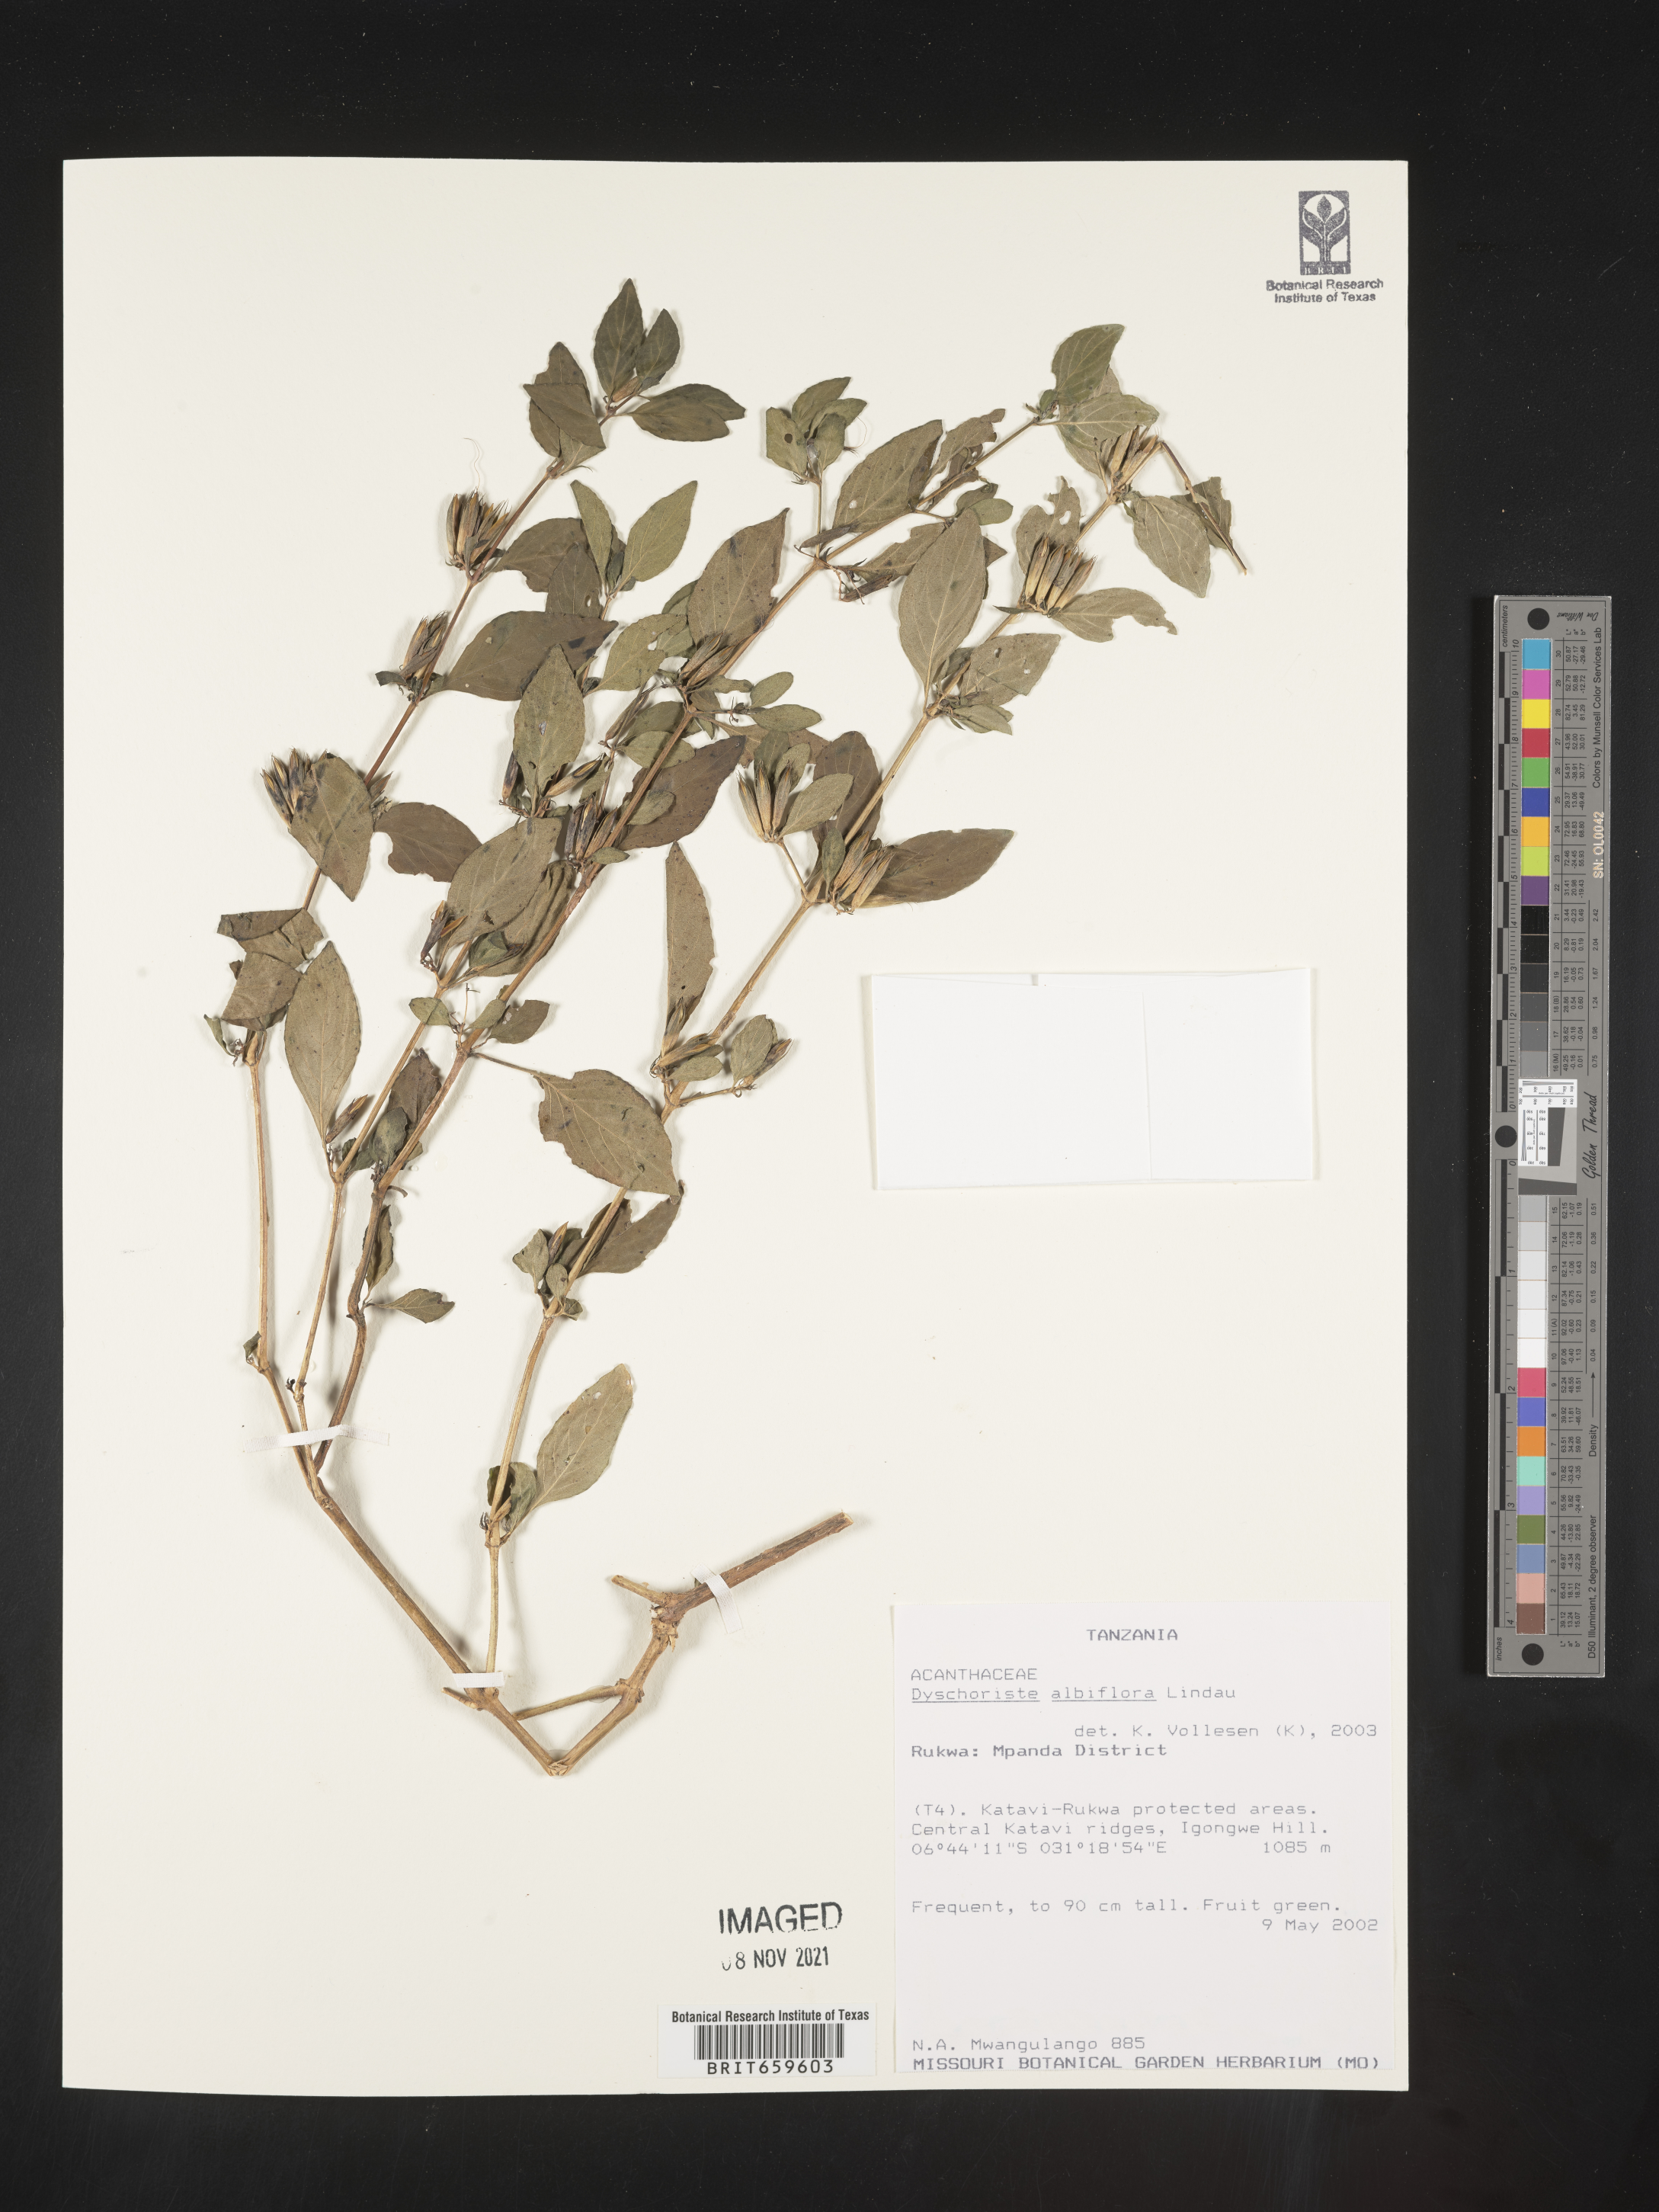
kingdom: Plantae
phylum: Tracheophyta
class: Magnoliopsida
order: Lamiales
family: Acanthaceae
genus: Dyschoriste
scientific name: Dyschoriste albiflora
